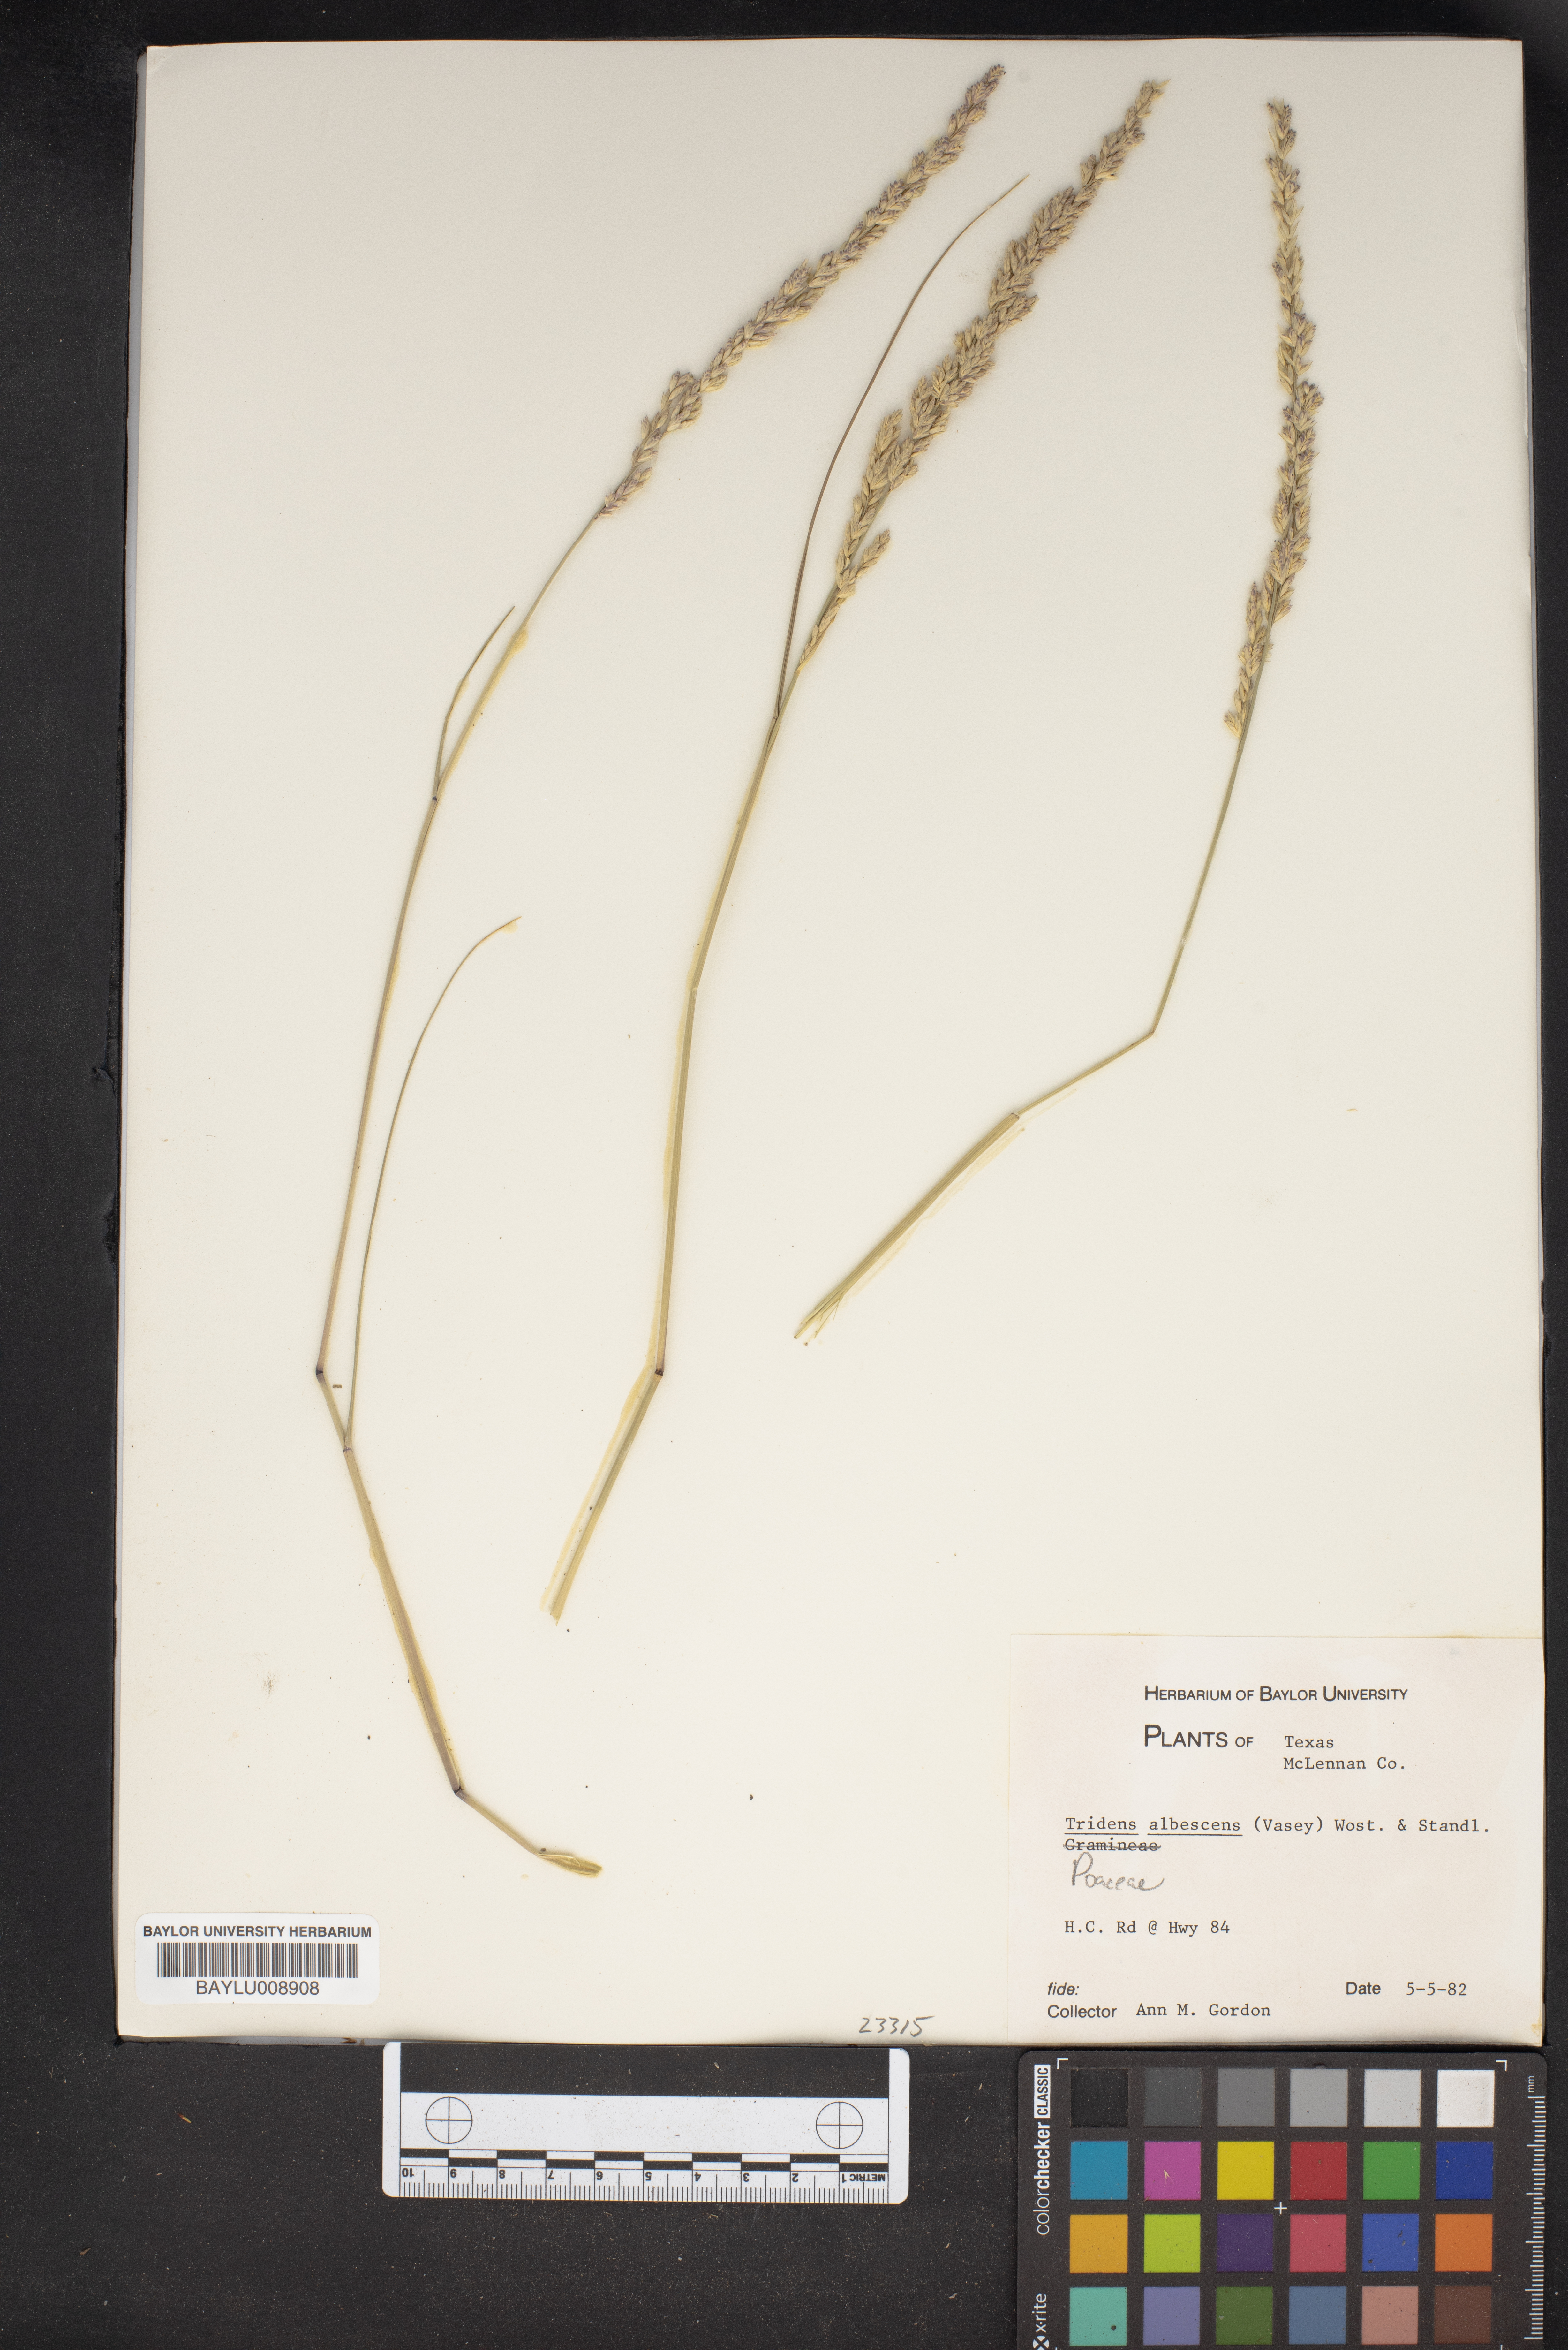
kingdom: Plantae
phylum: Tracheophyta
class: Liliopsida
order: Poales
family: Poaceae
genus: Tridens
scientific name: Tridens albescens
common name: White tridens
